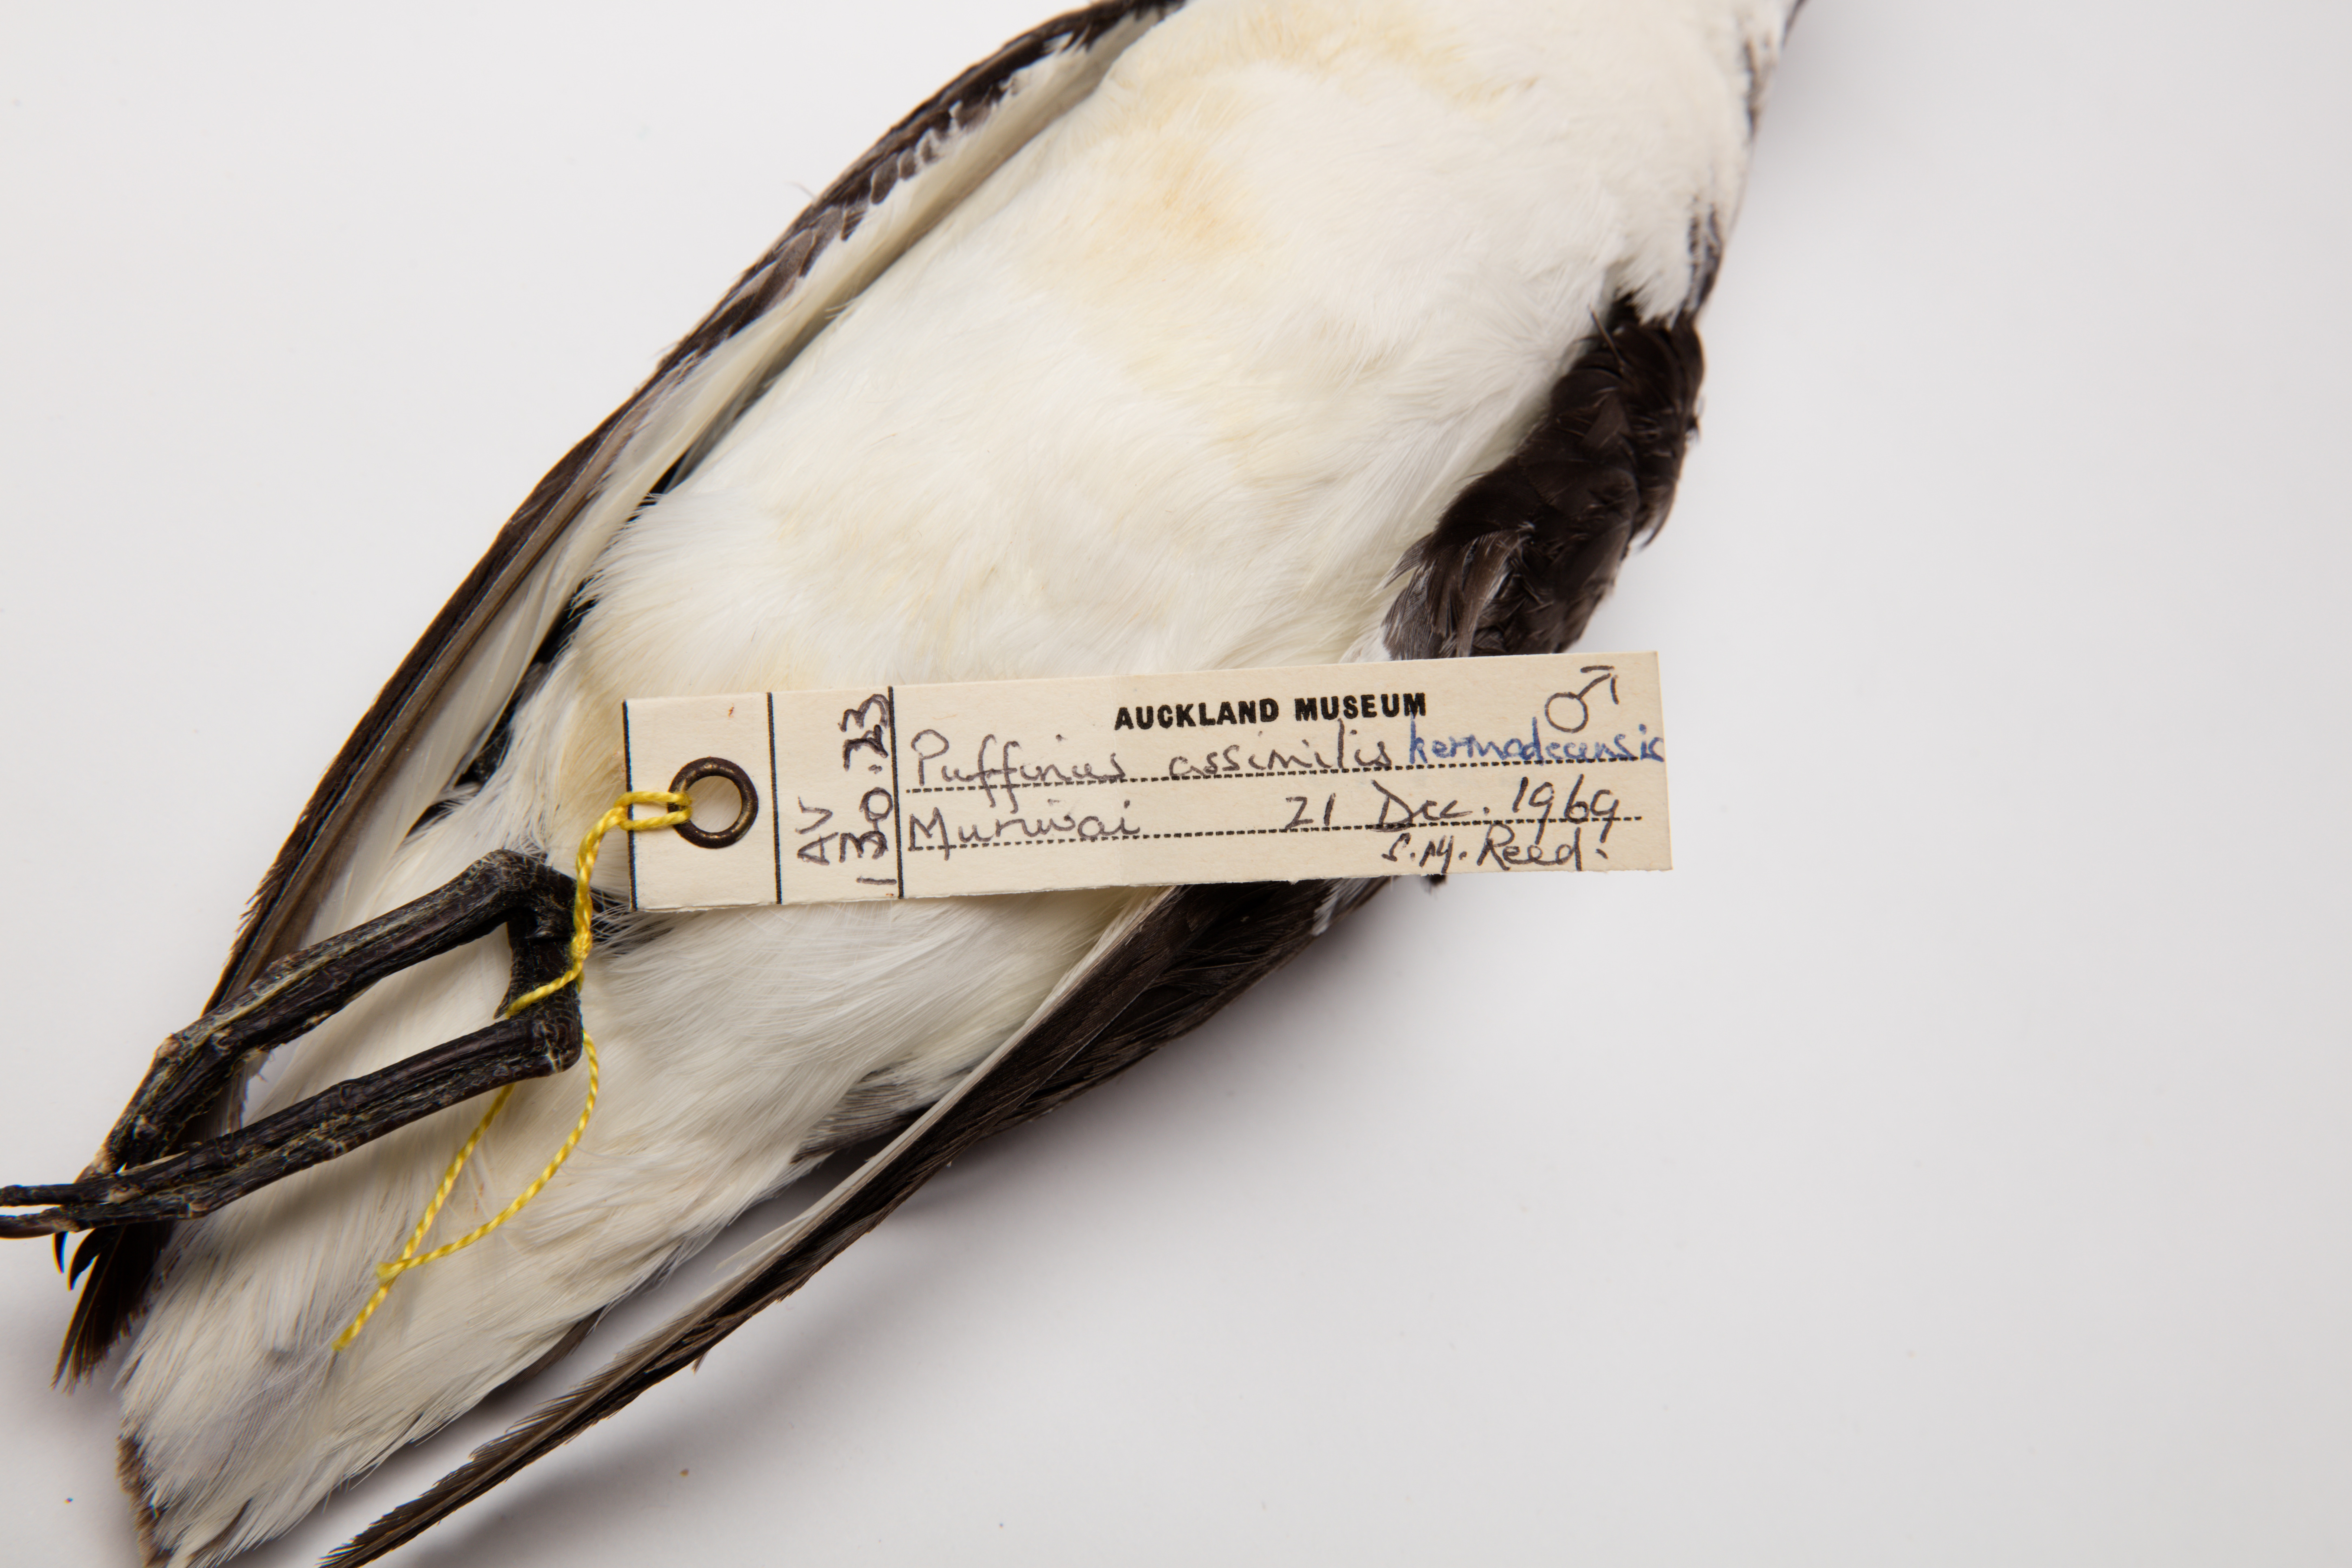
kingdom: Animalia
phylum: Chordata
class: Aves
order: Procellariiformes
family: Procellariidae
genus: Puffinus
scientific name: Puffinus assimilis
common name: Little shearwater
